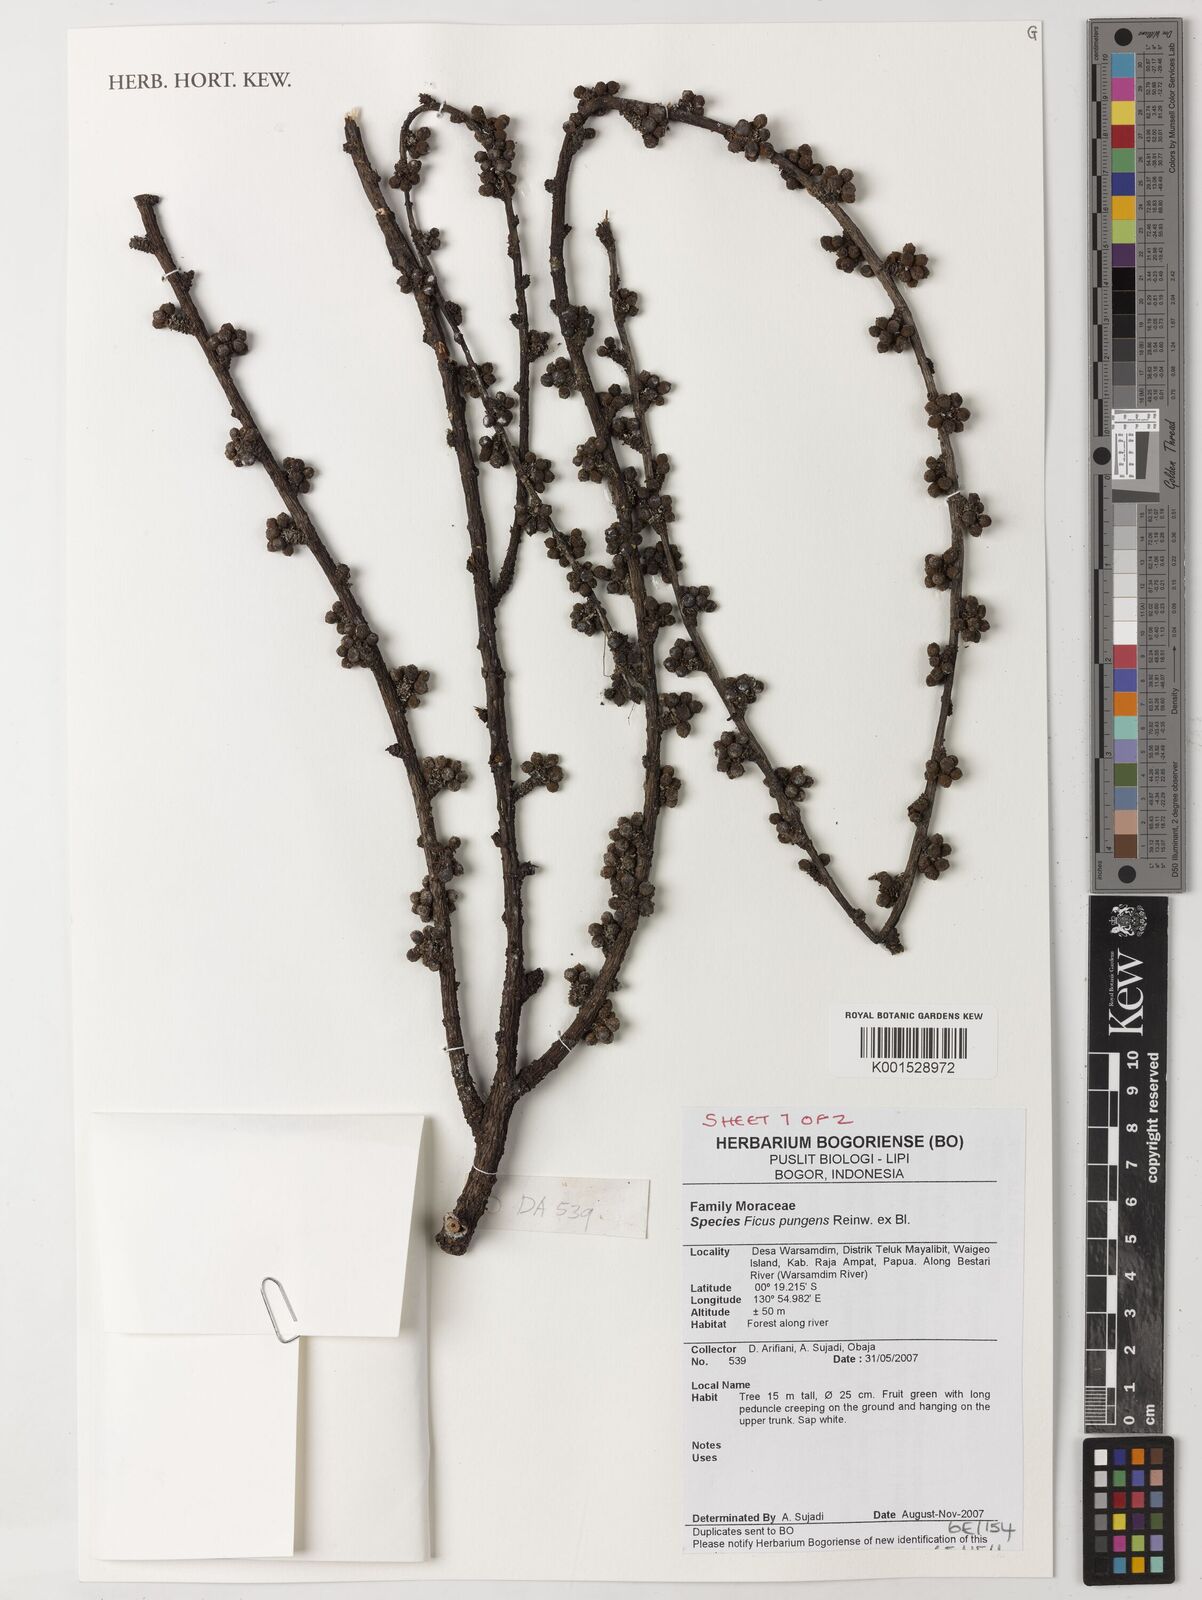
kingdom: Plantae
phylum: Tracheophyta
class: Magnoliopsida
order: Rosales
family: Moraceae
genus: Ficus
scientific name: Ficus pungens
